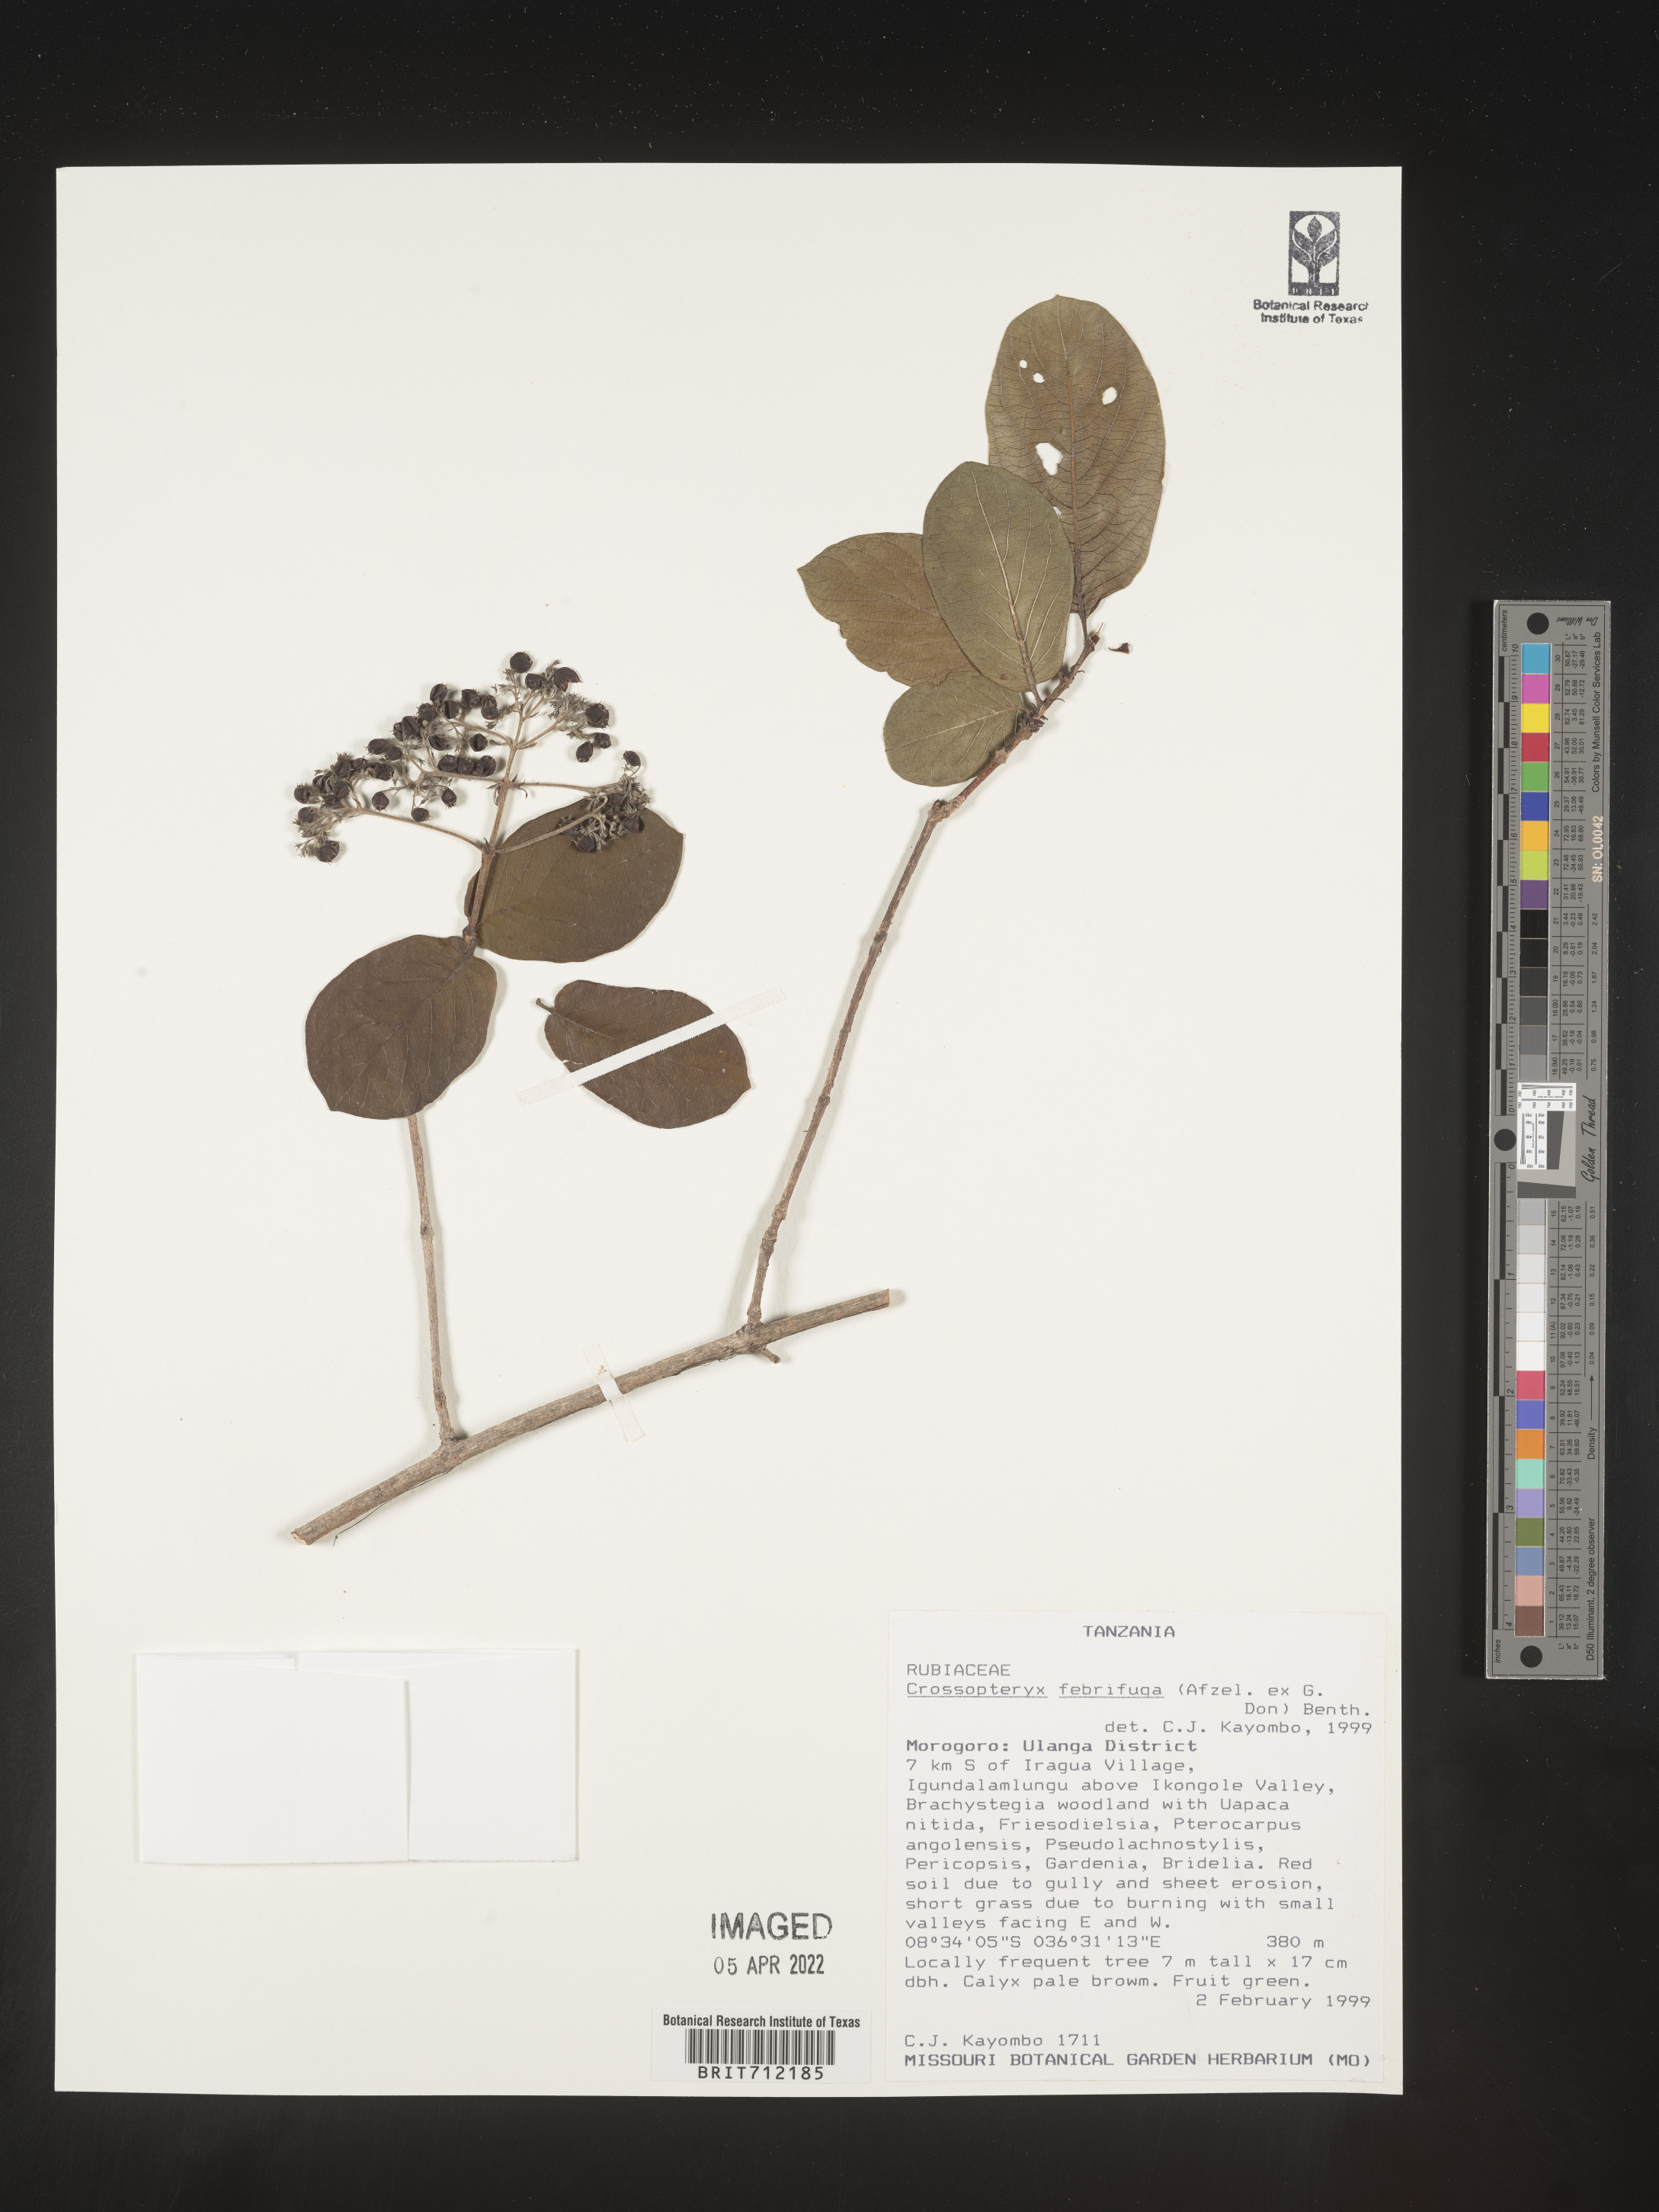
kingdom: Plantae
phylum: Tracheophyta
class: Magnoliopsida
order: Gentianales
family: Rubiaceae
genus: Crossopteryx
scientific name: Crossopteryx
